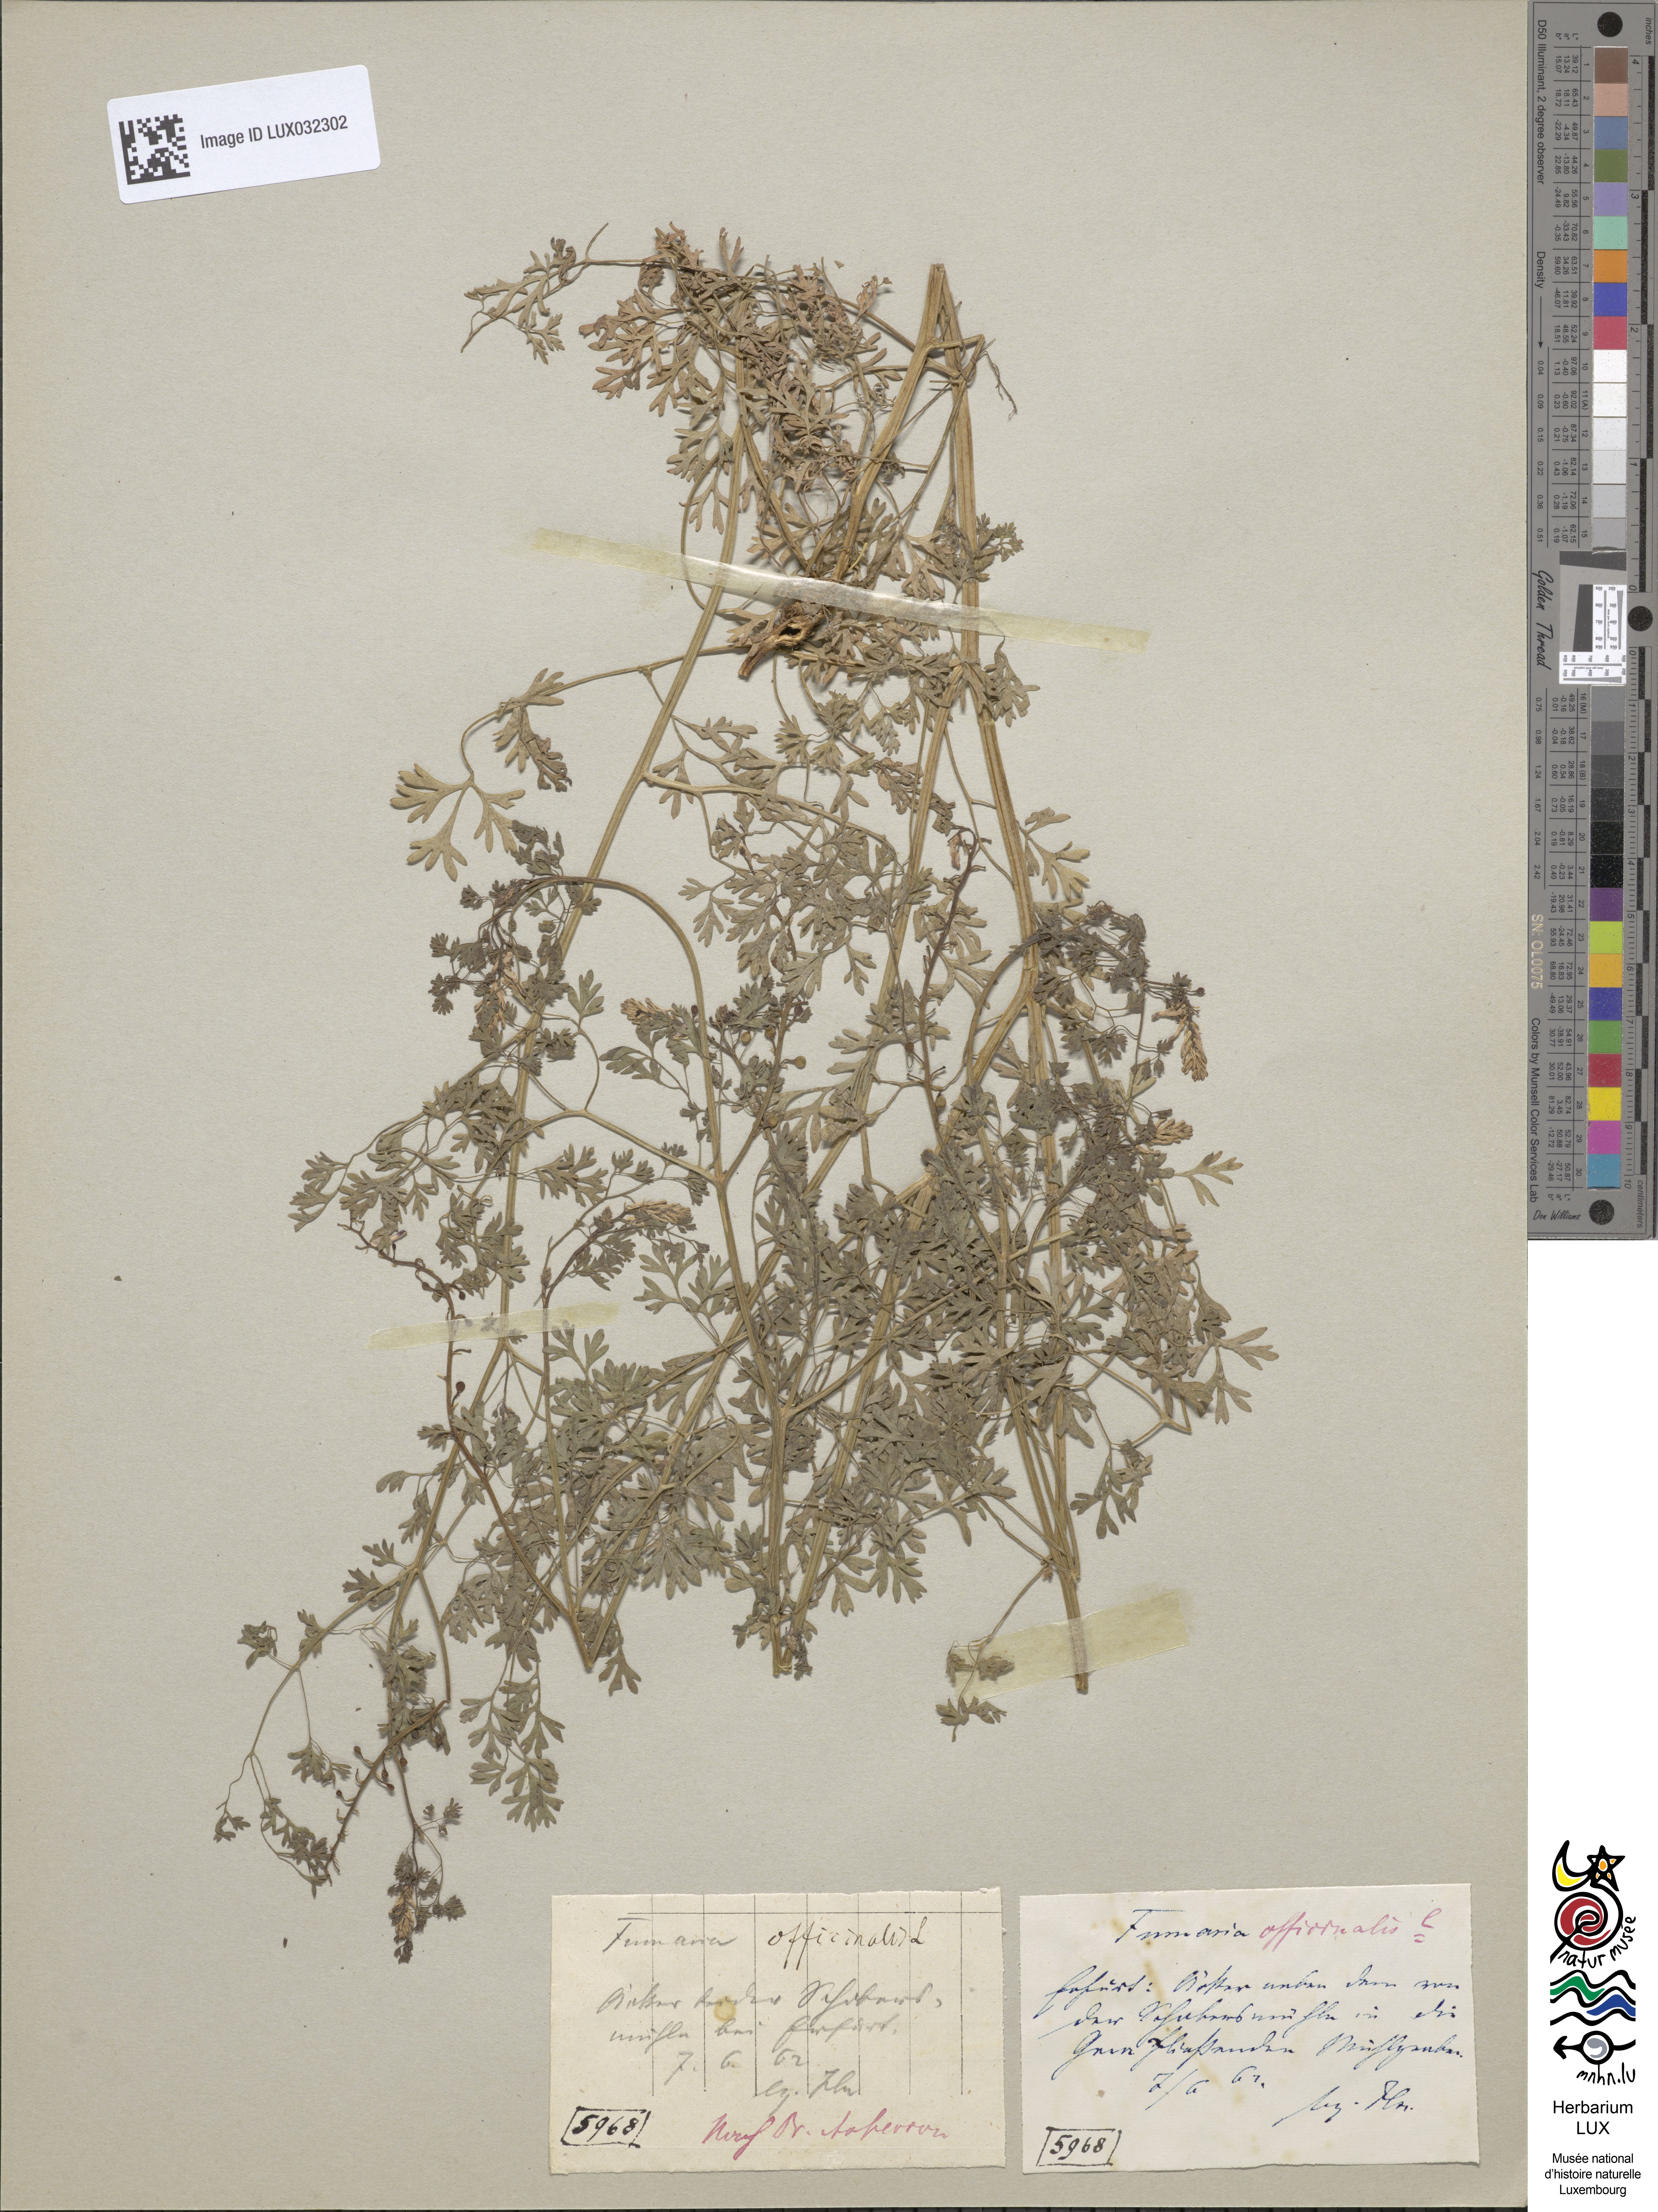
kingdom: Plantae
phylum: Tracheophyta
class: Magnoliopsida
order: Ranunculales
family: Papaveraceae
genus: Fumaria
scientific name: Fumaria officinalis
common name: Common fumitory
